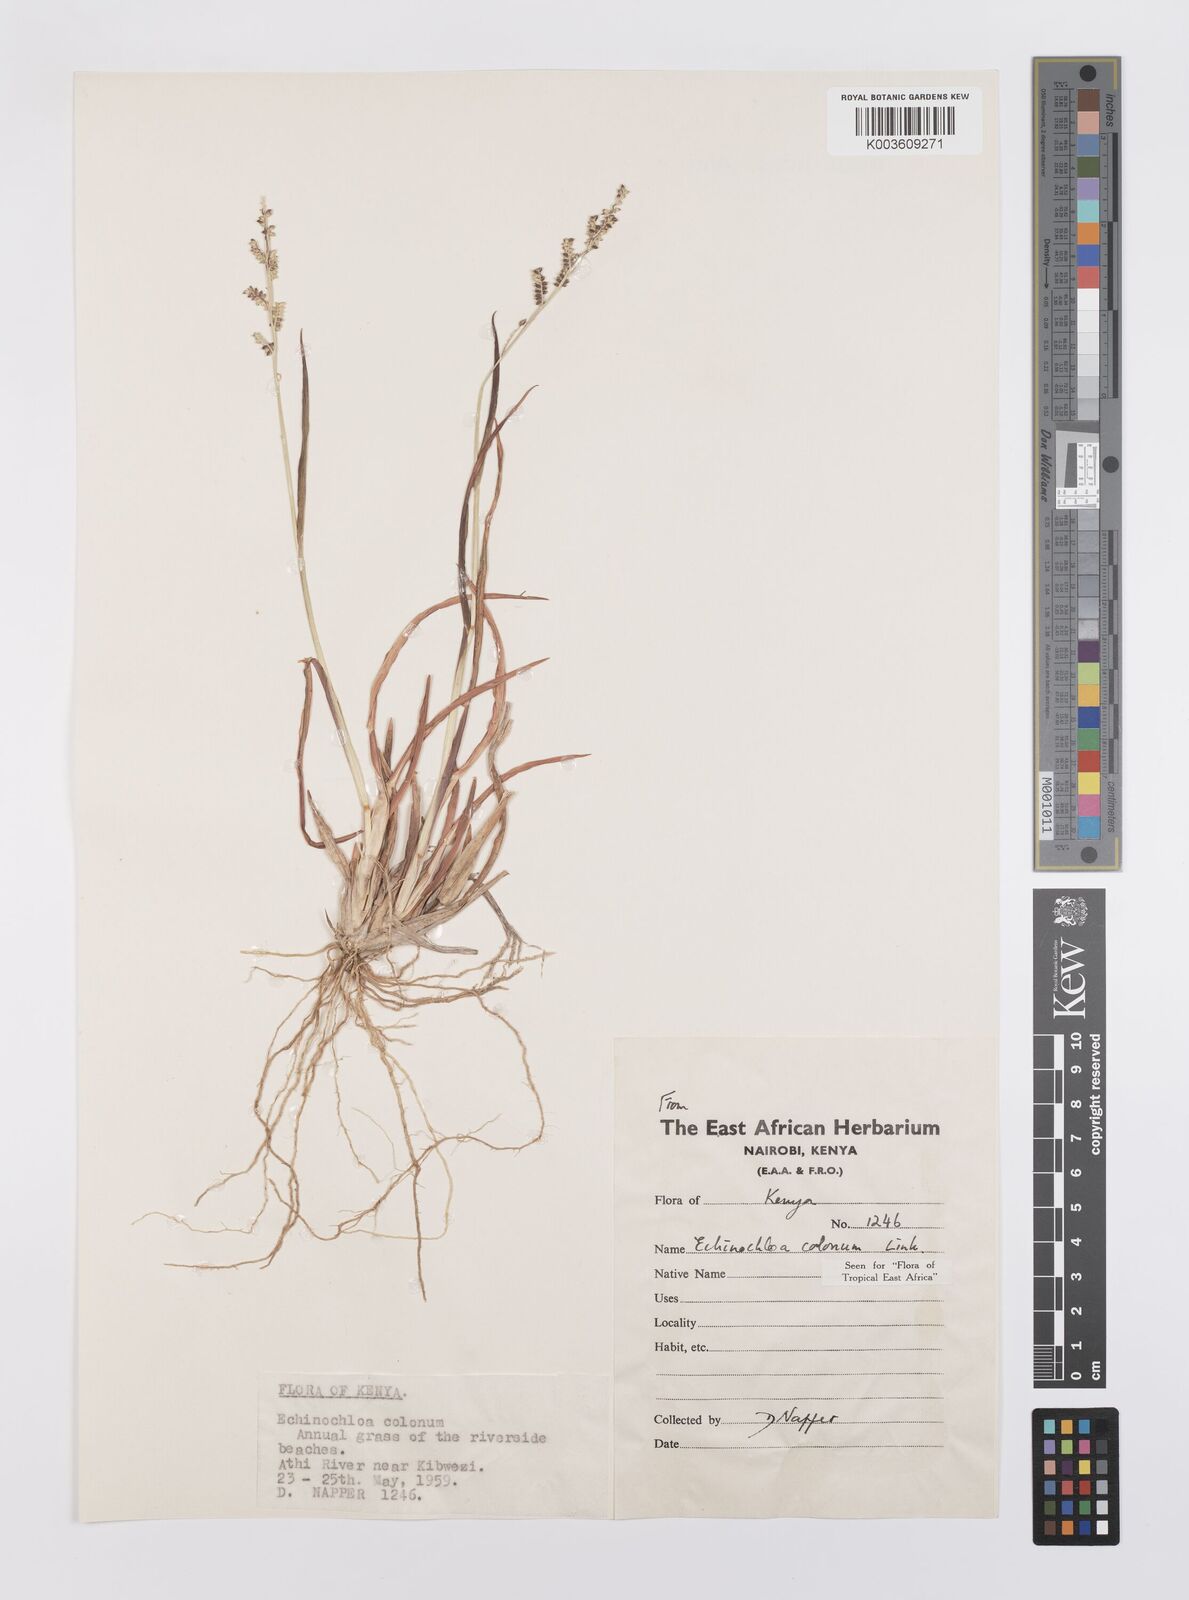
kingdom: Plantae
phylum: Tracheophyta
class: Liliopsida
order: Poales
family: Poaceae
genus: Echinochloa
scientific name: Echinochloa colonum
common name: Jungle rice
